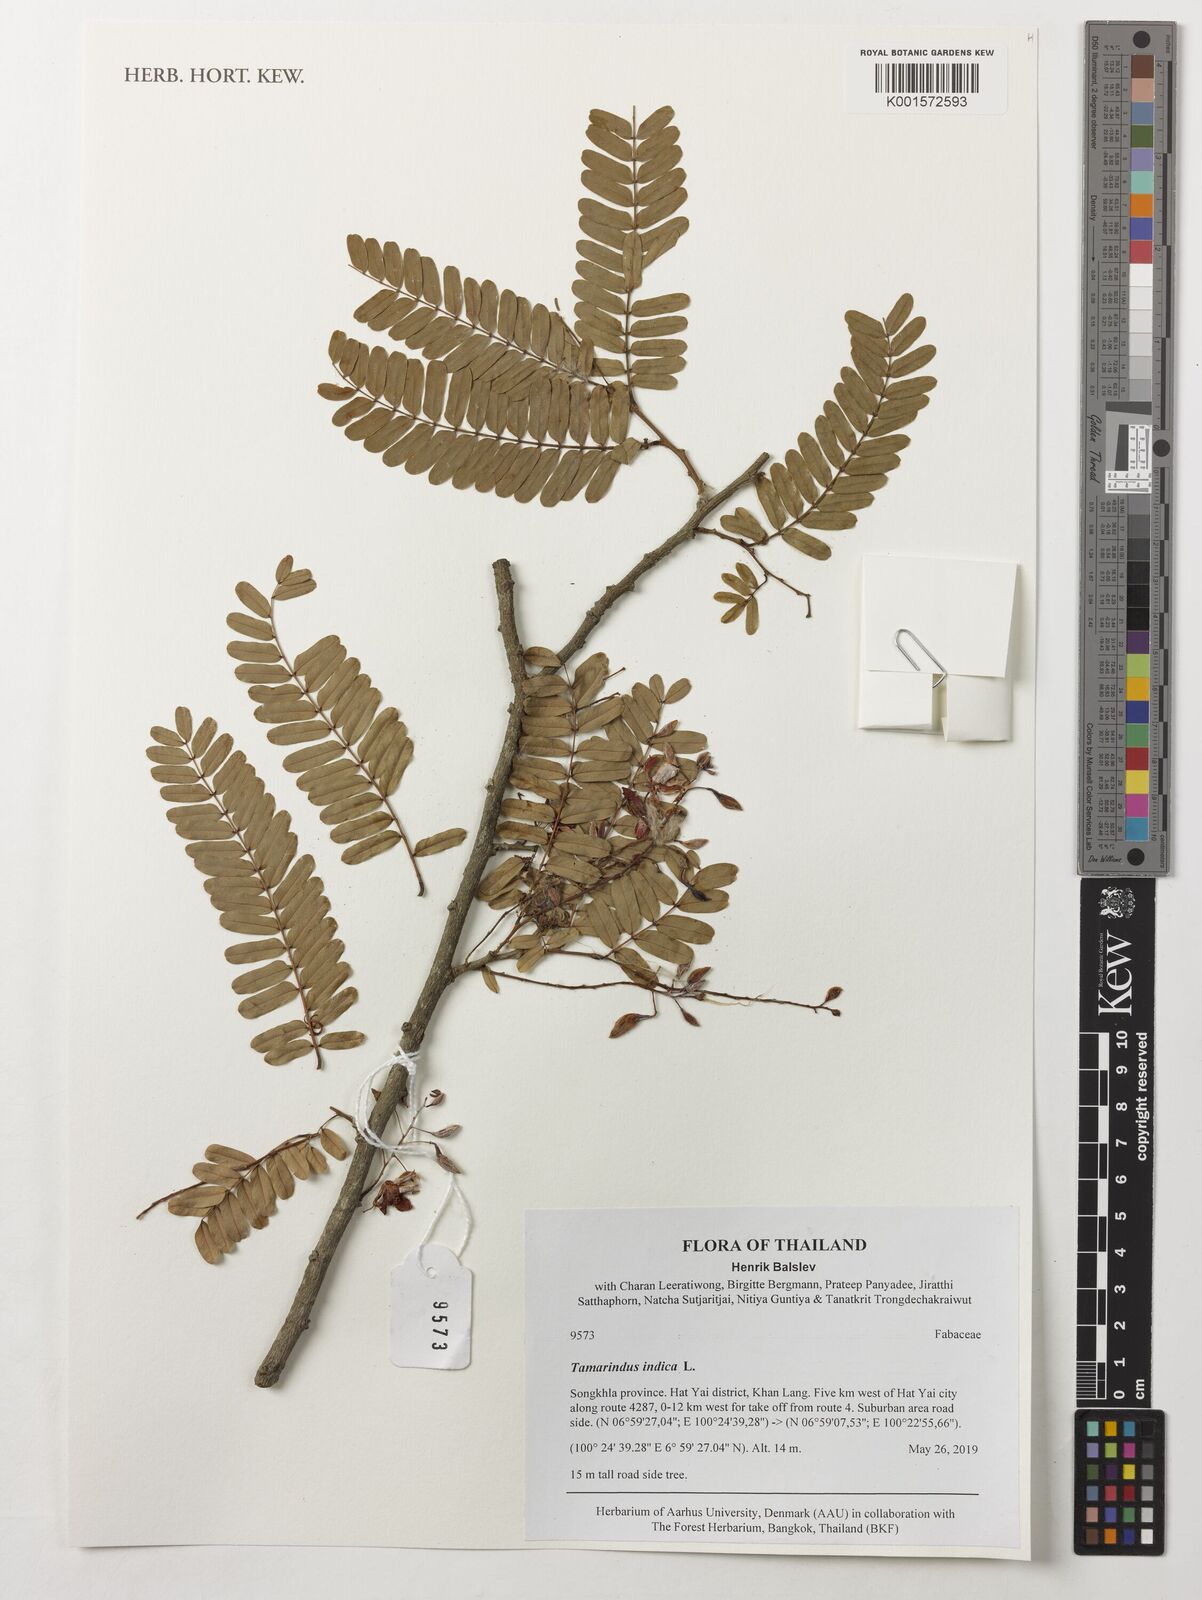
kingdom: Plantae
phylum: Tracheophyta
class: Magnoliopsida
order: Fabales
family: Fabaceae
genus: Tamarindus
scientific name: Tamarindus indica
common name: Tamarind
